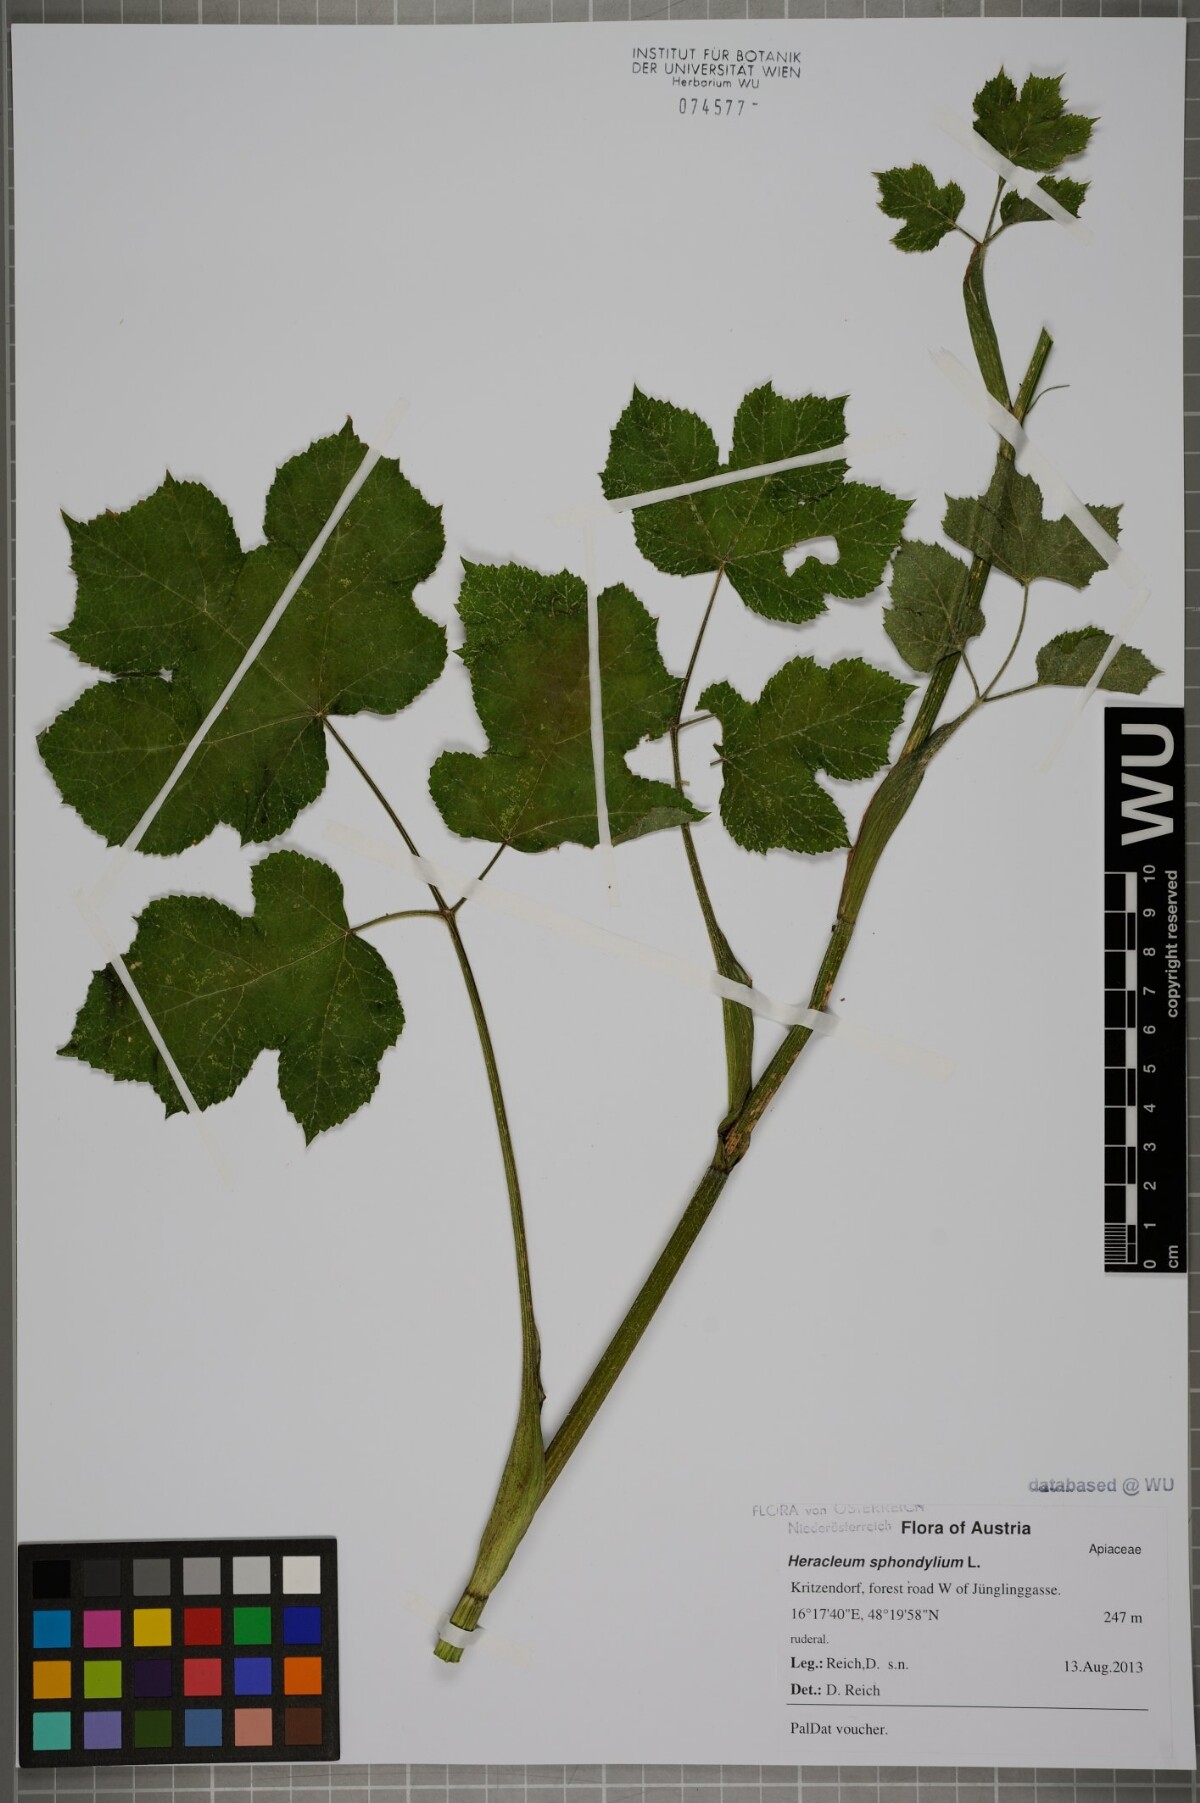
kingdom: Plantae
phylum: Tracheophyta
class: Magnoliopsida
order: Apiales
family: Apiaceae
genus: Heracleum
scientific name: Heracleum sphondylium
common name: Hogweed
